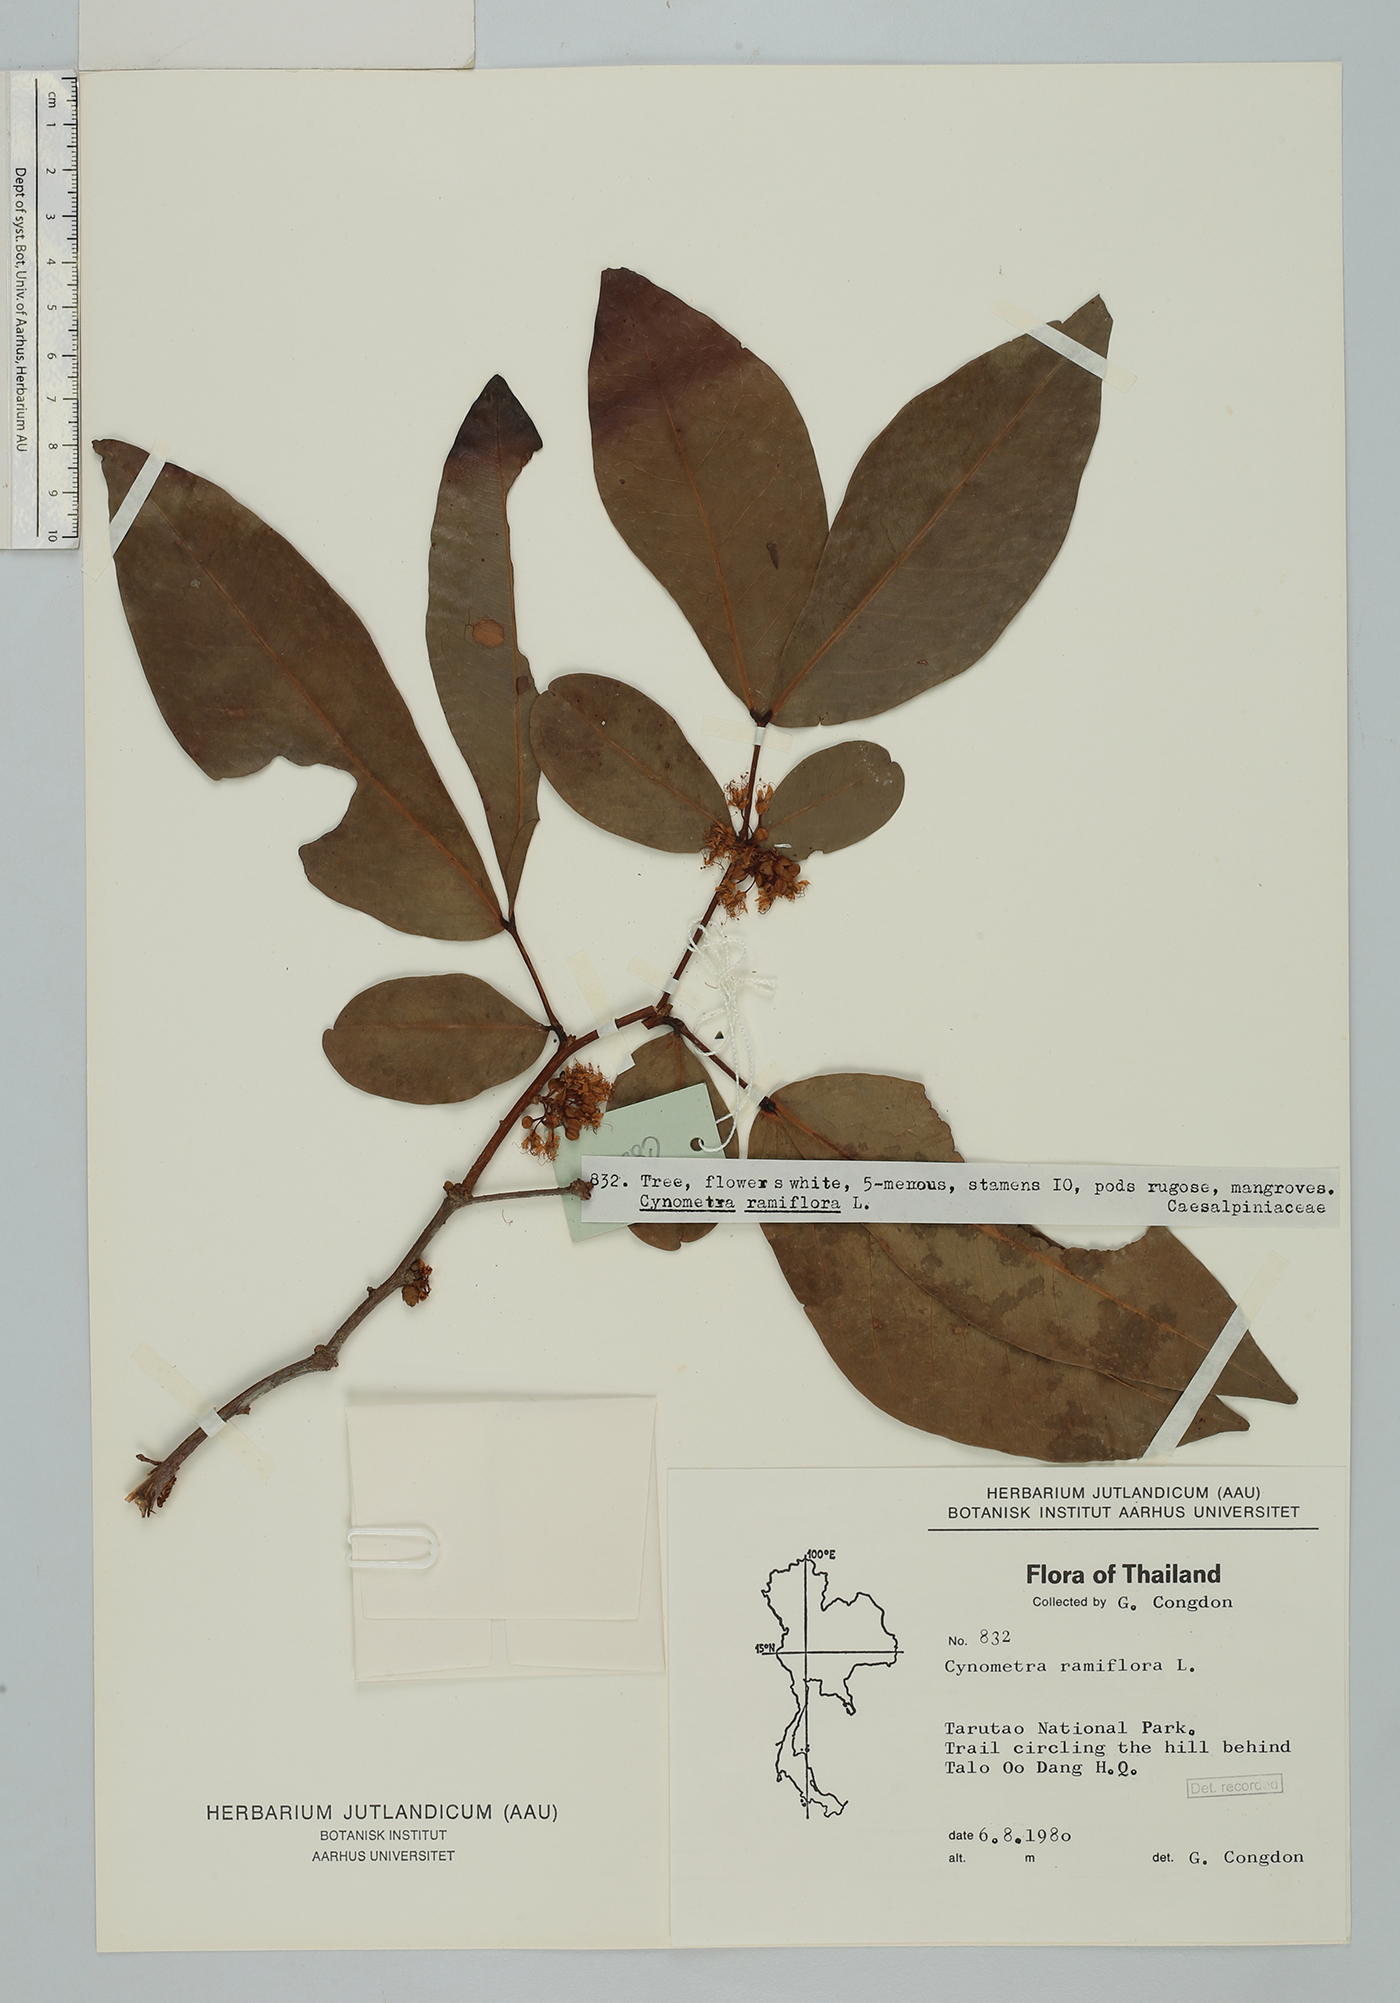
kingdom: Plantae
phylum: Tracheophyta
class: Magnoliopsida
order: Fabales
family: Fabaceae
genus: Cynometra
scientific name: Cynometra ramiflora
